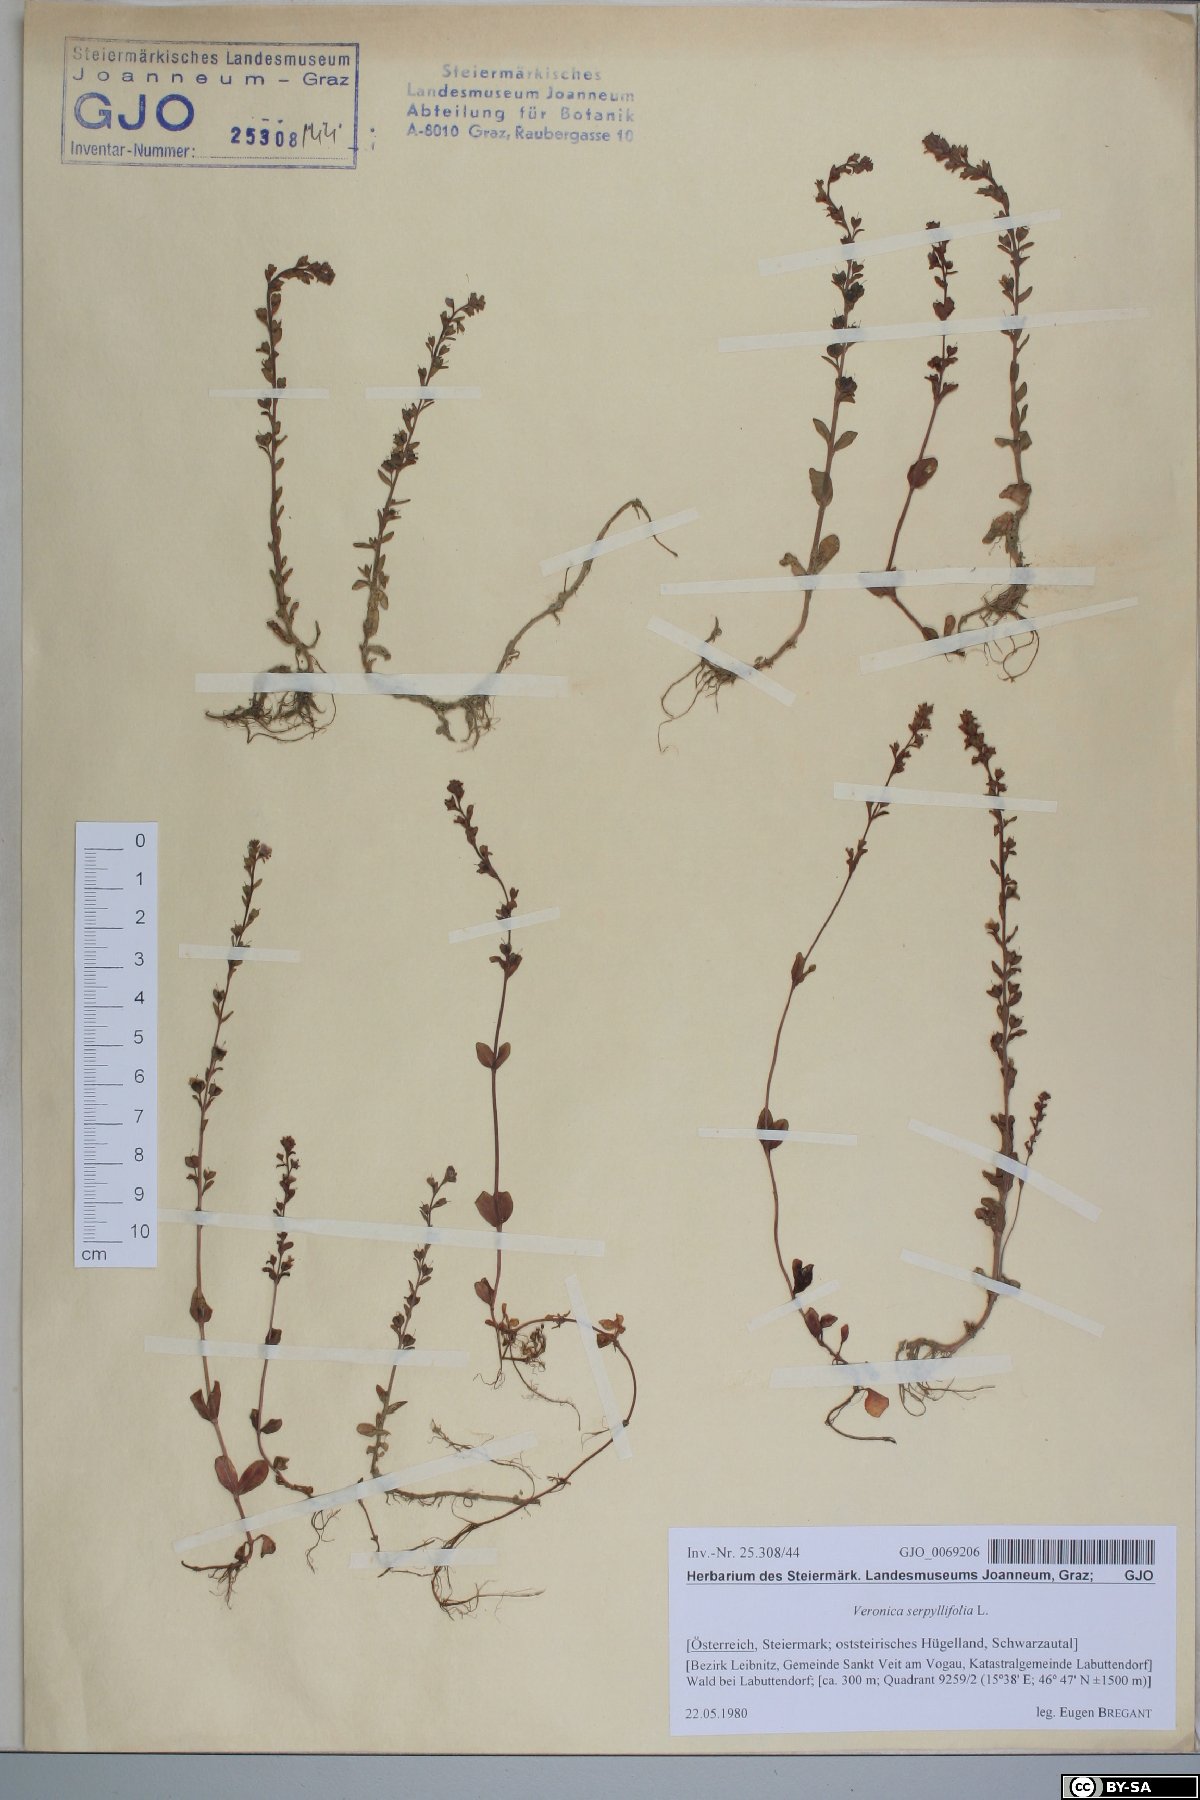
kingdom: Plantae
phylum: Tracheophyta
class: Magnoliopsida
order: Lamiales
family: Plantaginaceae
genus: Veronica
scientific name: Veronica serpyllifolia
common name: Thyme-leaved speedwell
